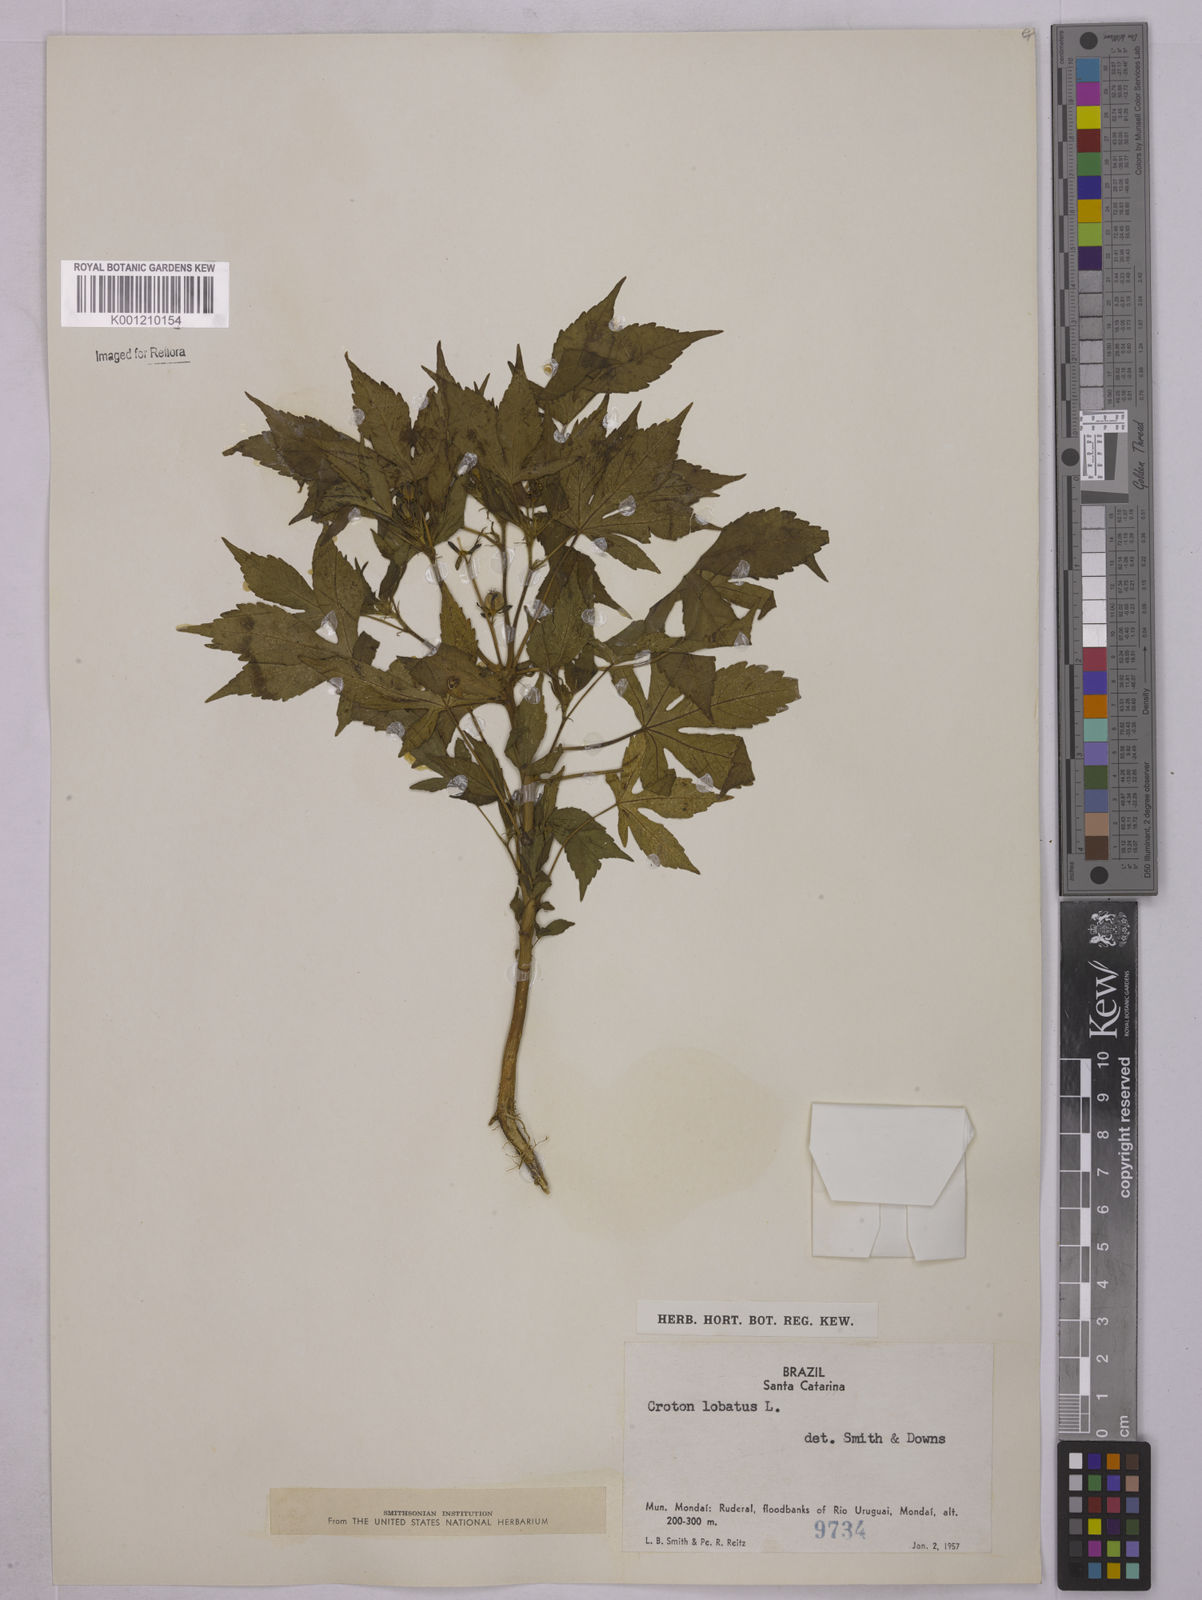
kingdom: Plantae
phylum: Tracheophyta
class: Magnoliopsida
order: Malpighiales
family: Euphorbiaceae
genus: Astraea
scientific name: Astraea lobata
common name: Lobed croton
